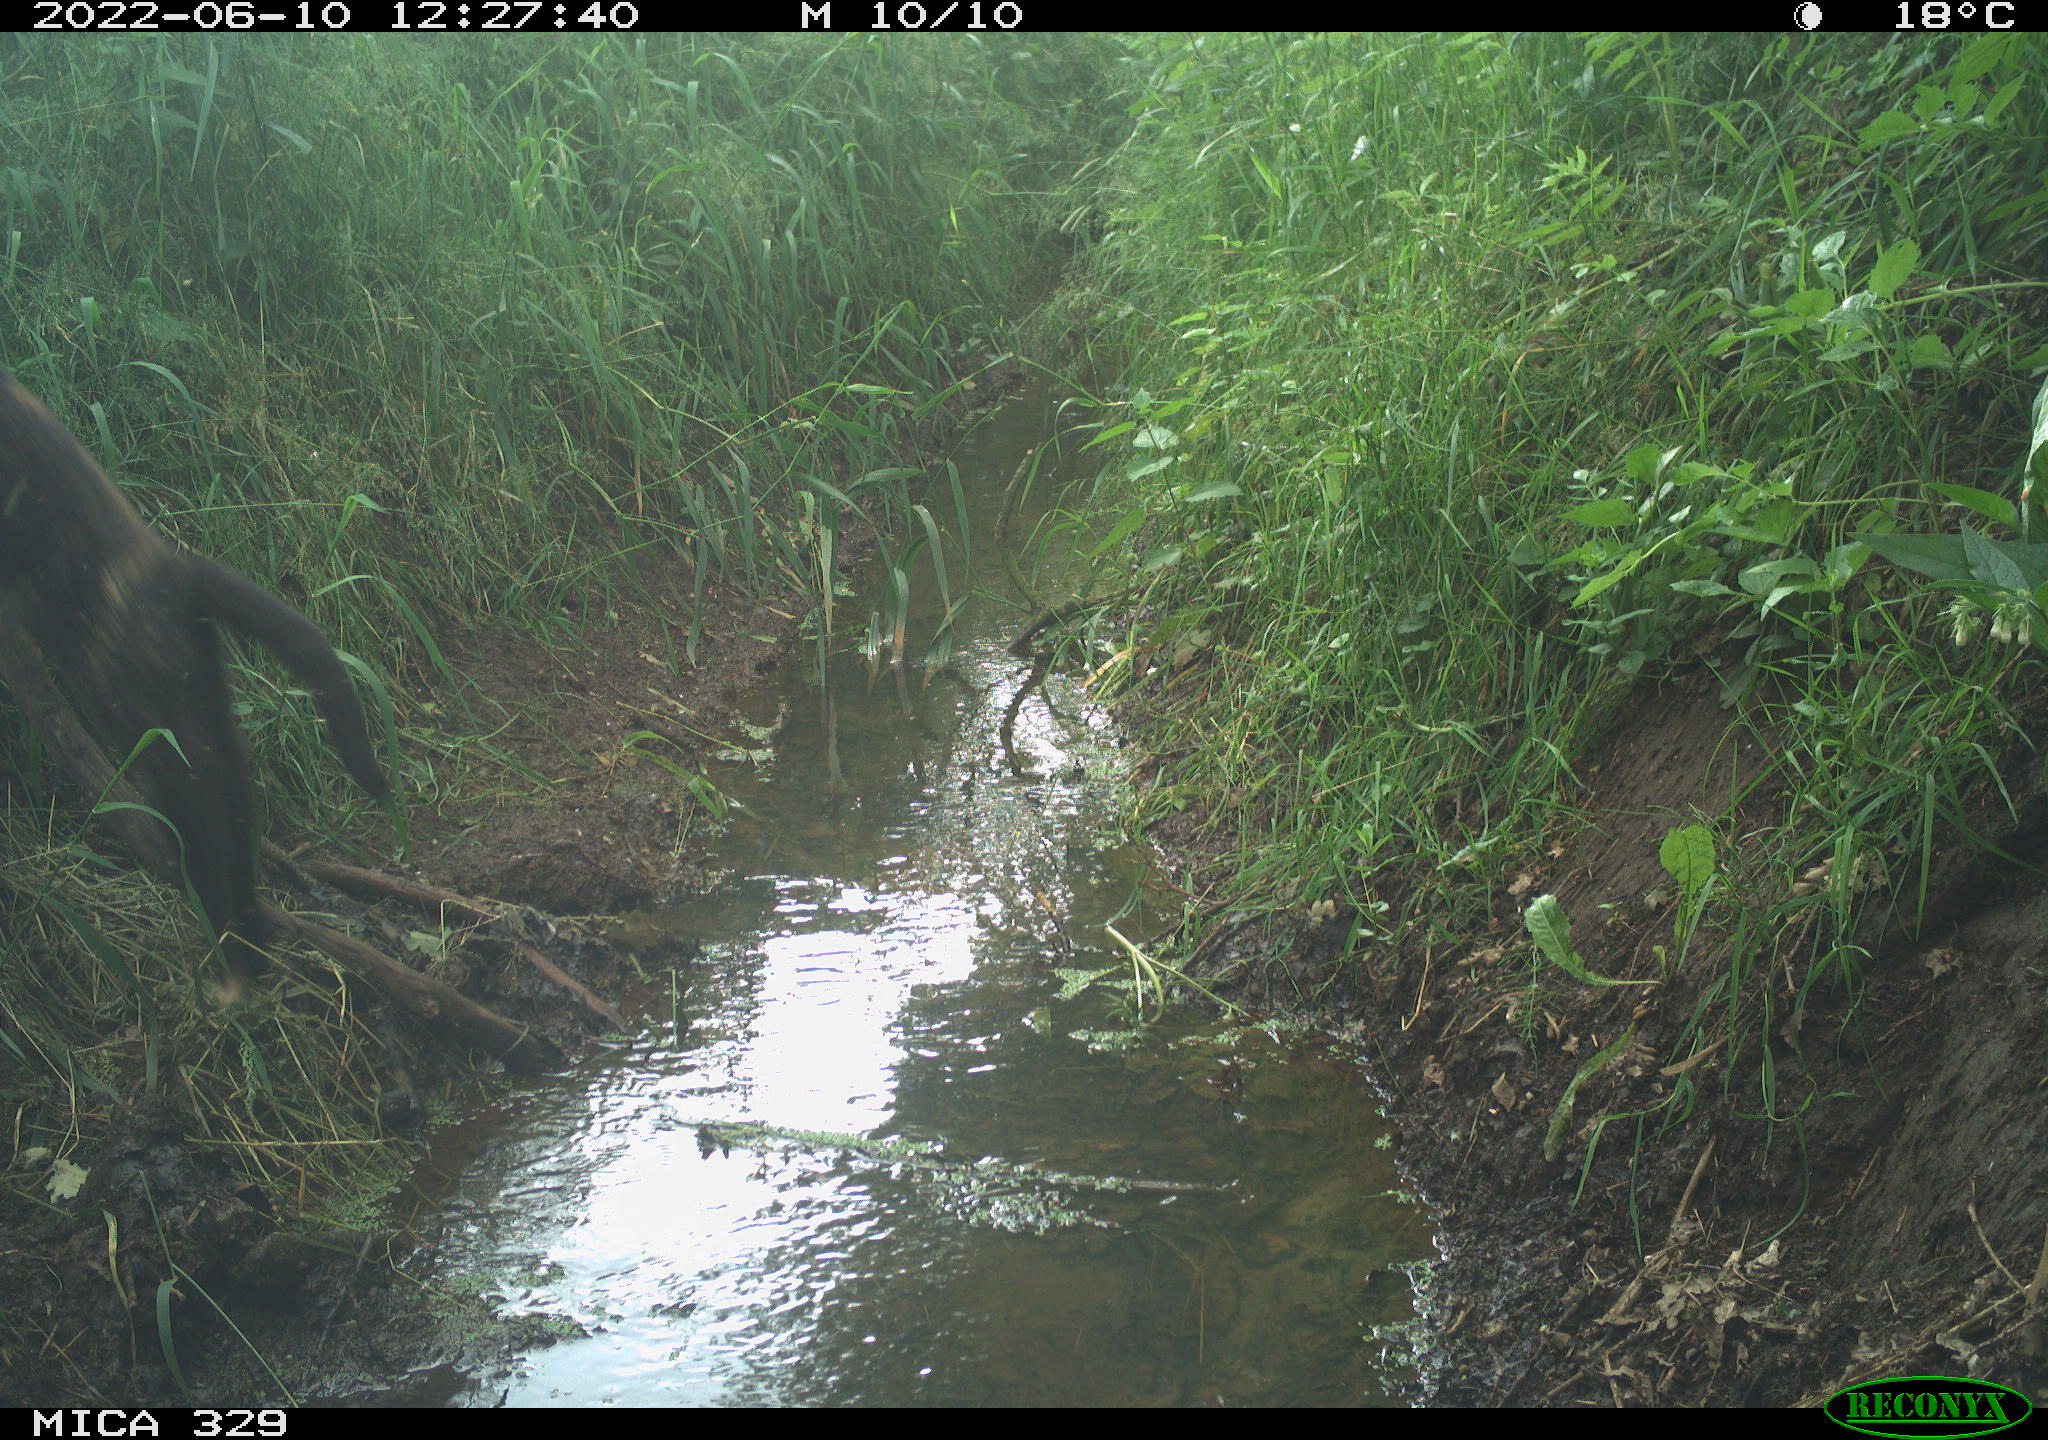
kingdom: Animalia
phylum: Chordata
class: Mammalia
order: Carnivora
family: Felidae
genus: Felis
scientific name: Felis catus
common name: Domestic cat
